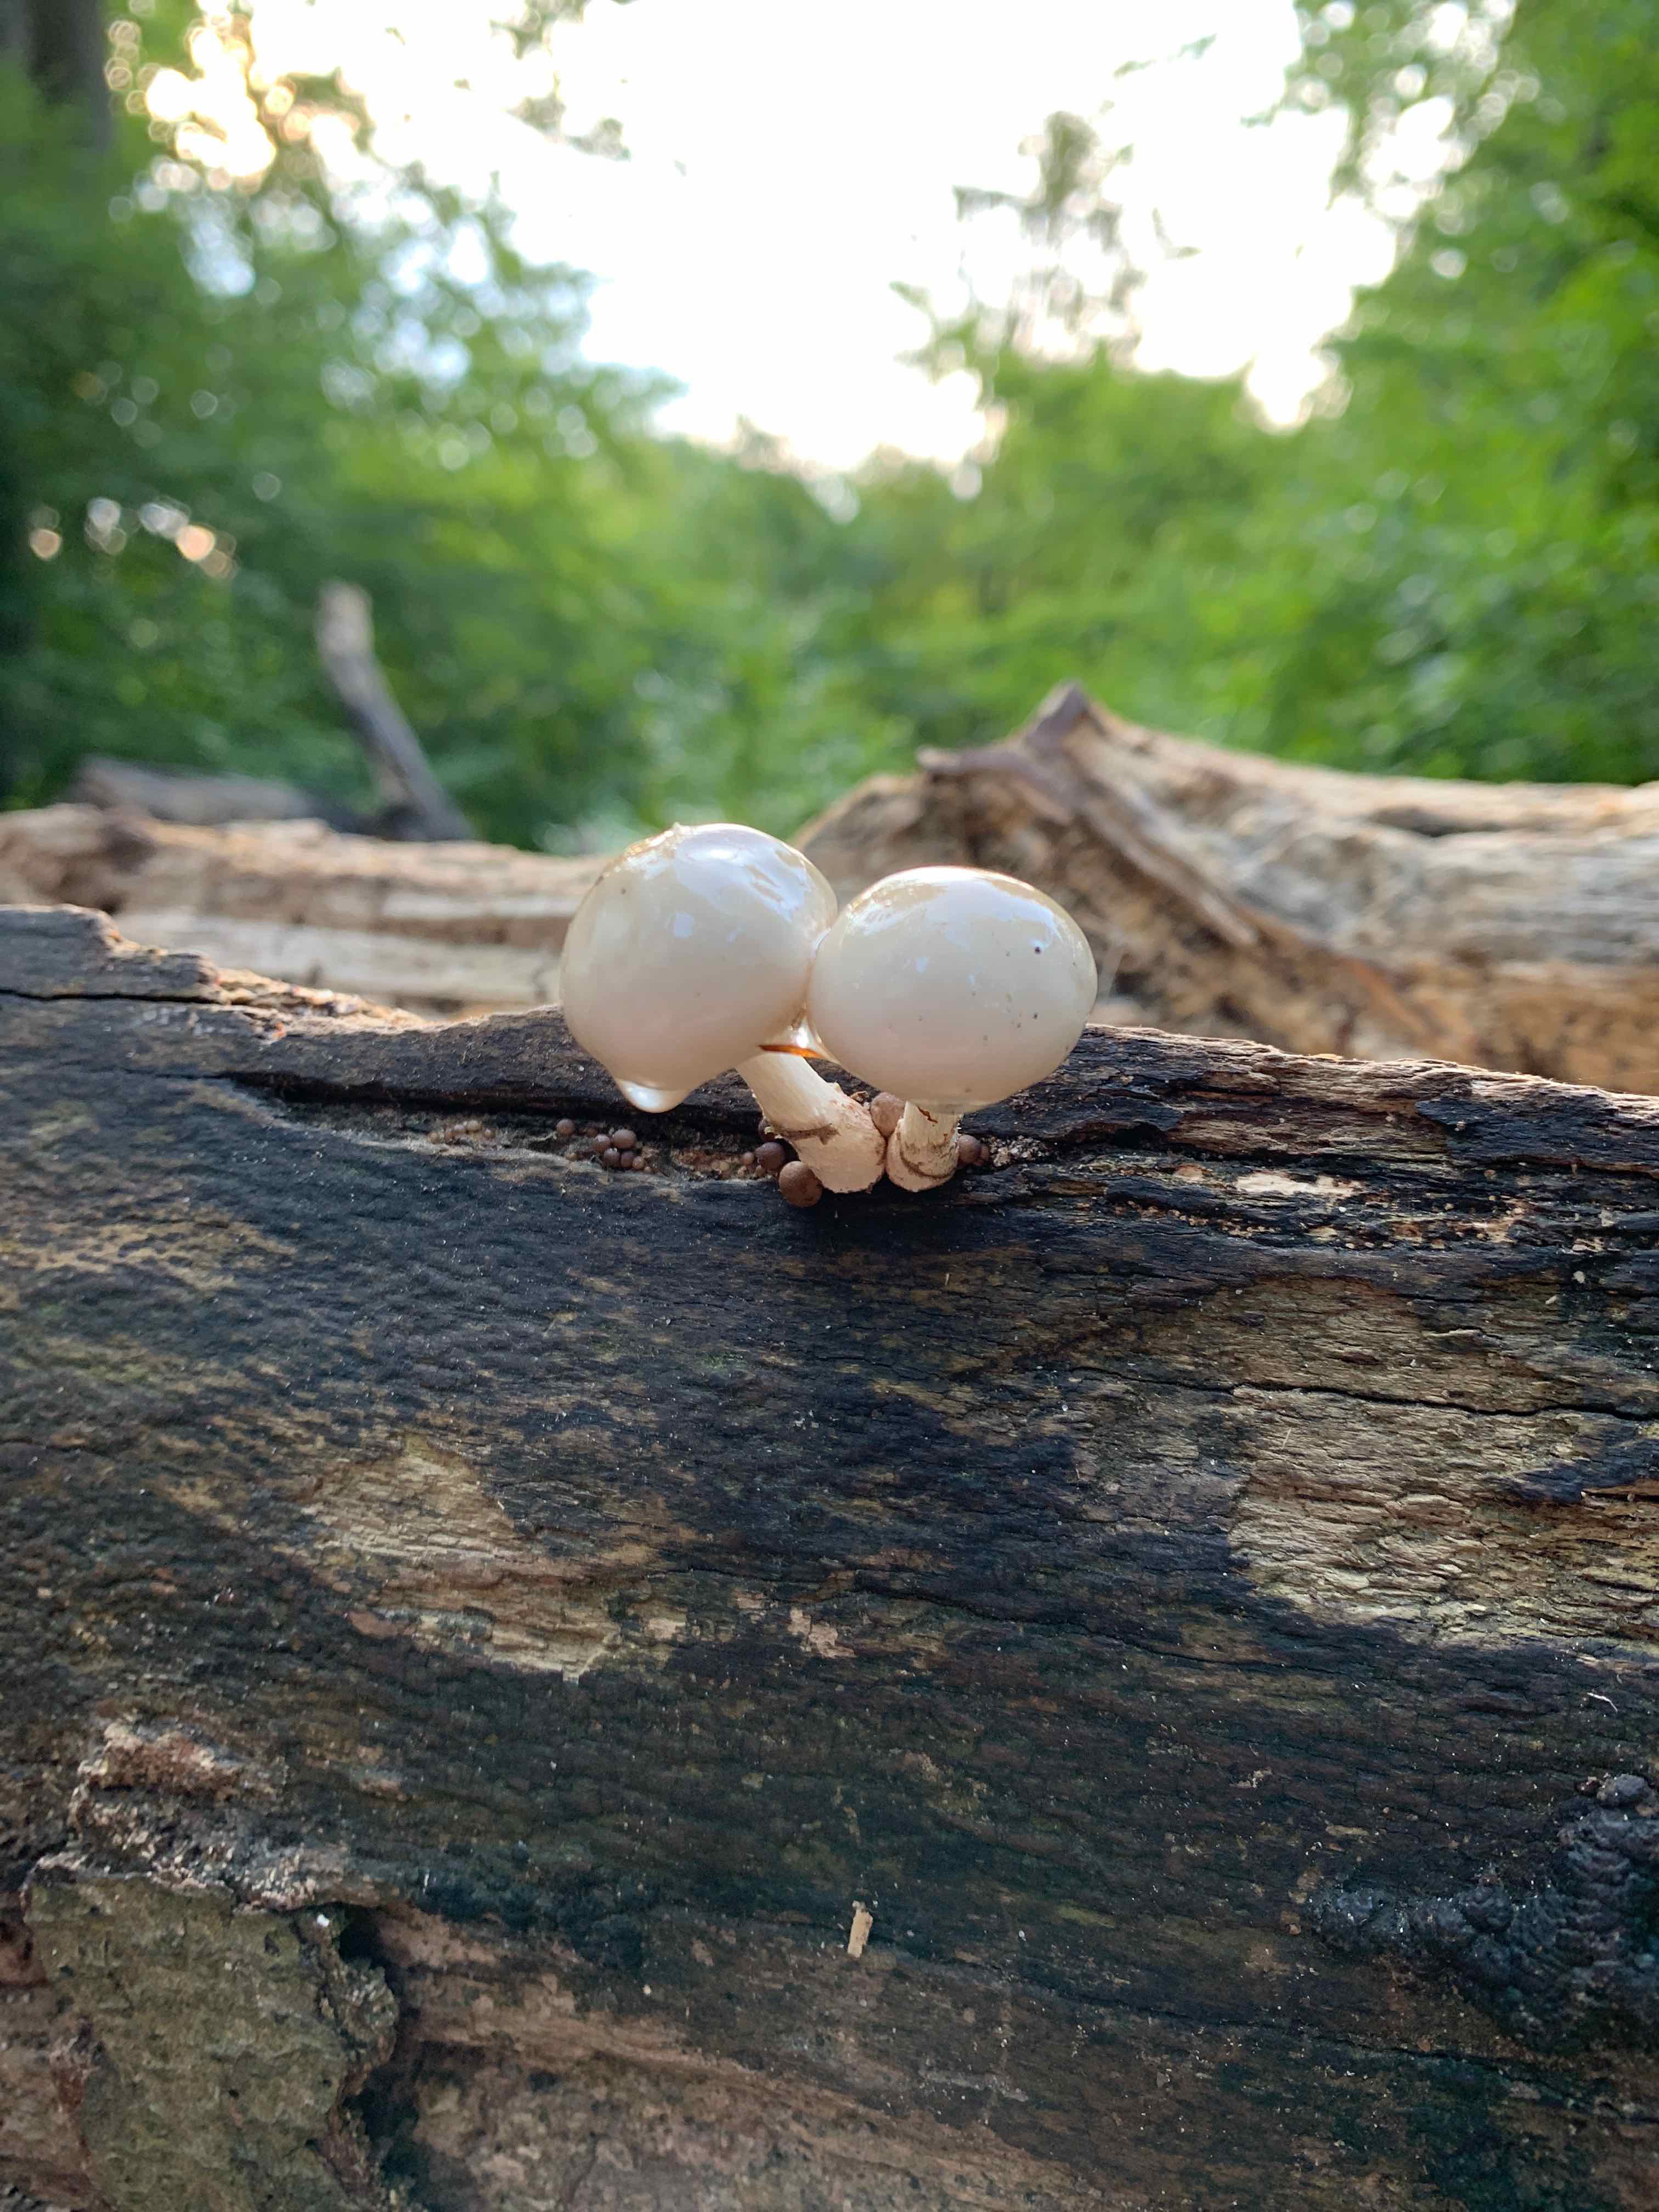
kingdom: Fungi
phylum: Basidiomycota
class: Agaricomycetes
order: Agaricales
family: Physalacriaceae
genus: Mucidula
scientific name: Mucidula mucida
